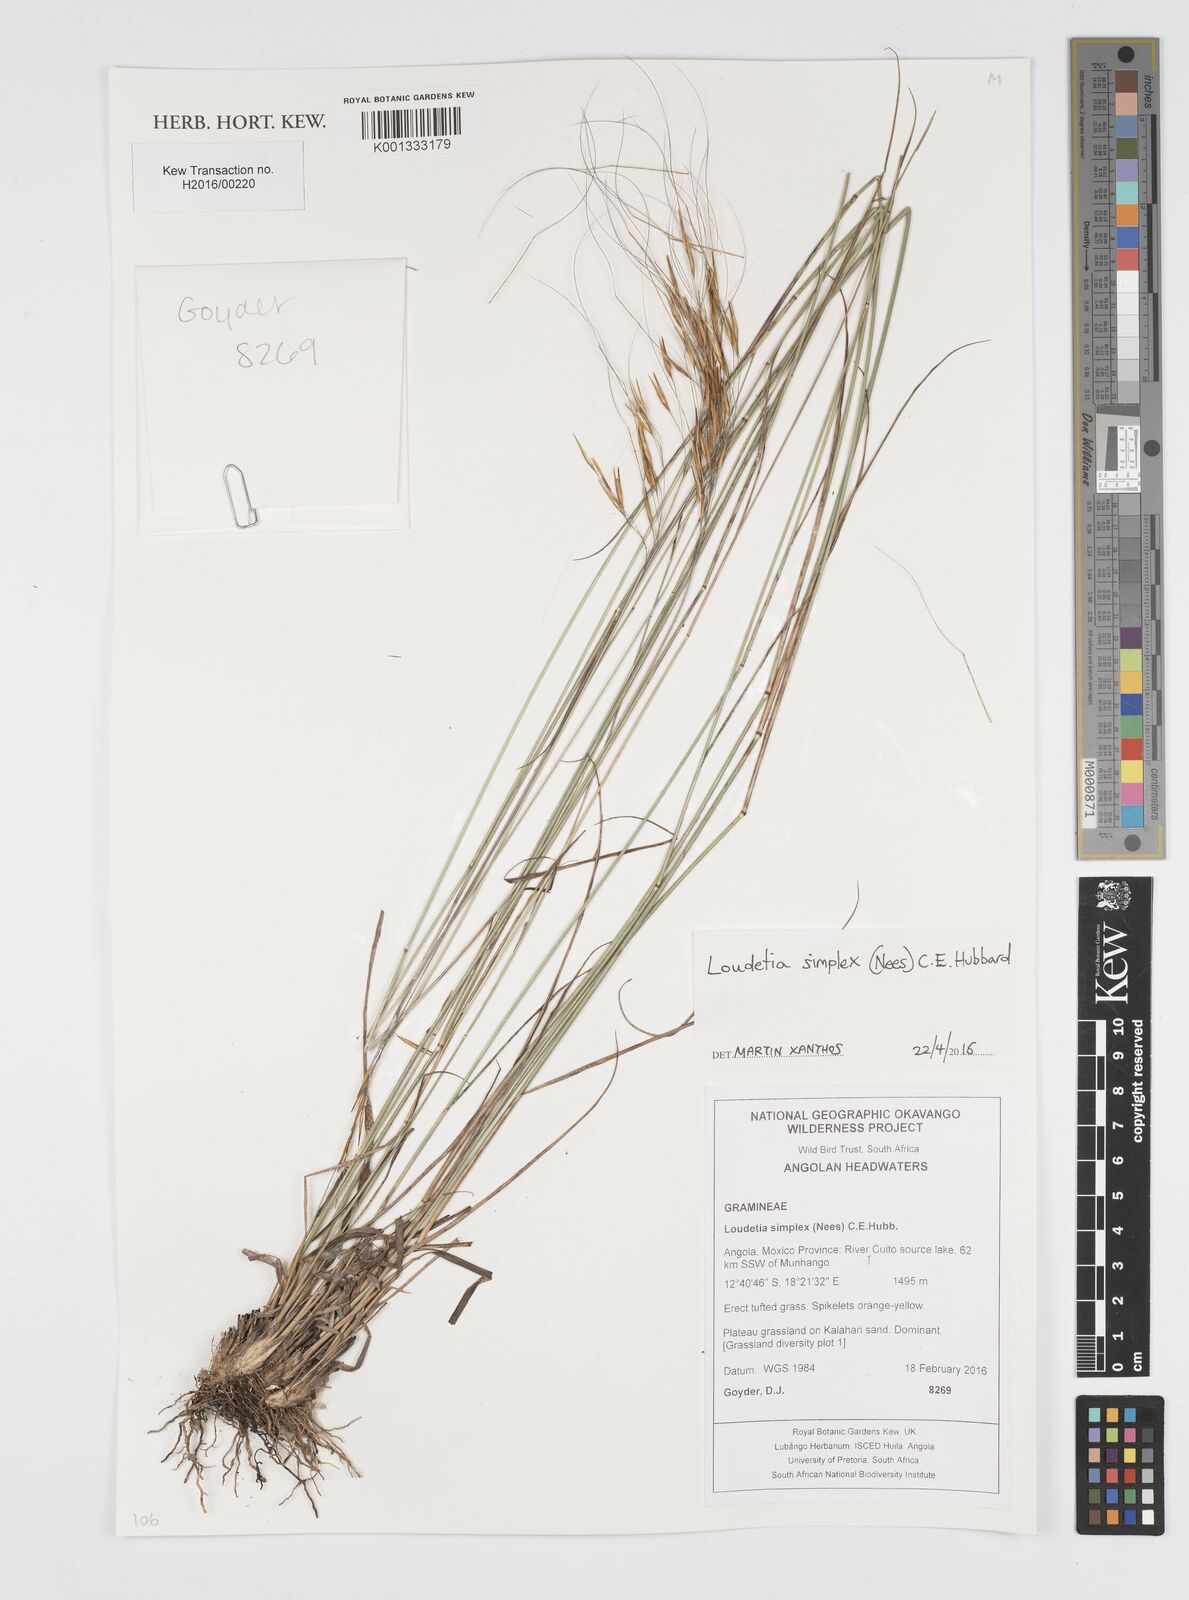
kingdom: Plantae
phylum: Tracheophyta
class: Liliopsida
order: Poales
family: Poaceae
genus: Loudetia
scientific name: Loudetia simplex
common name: Common russet grass
